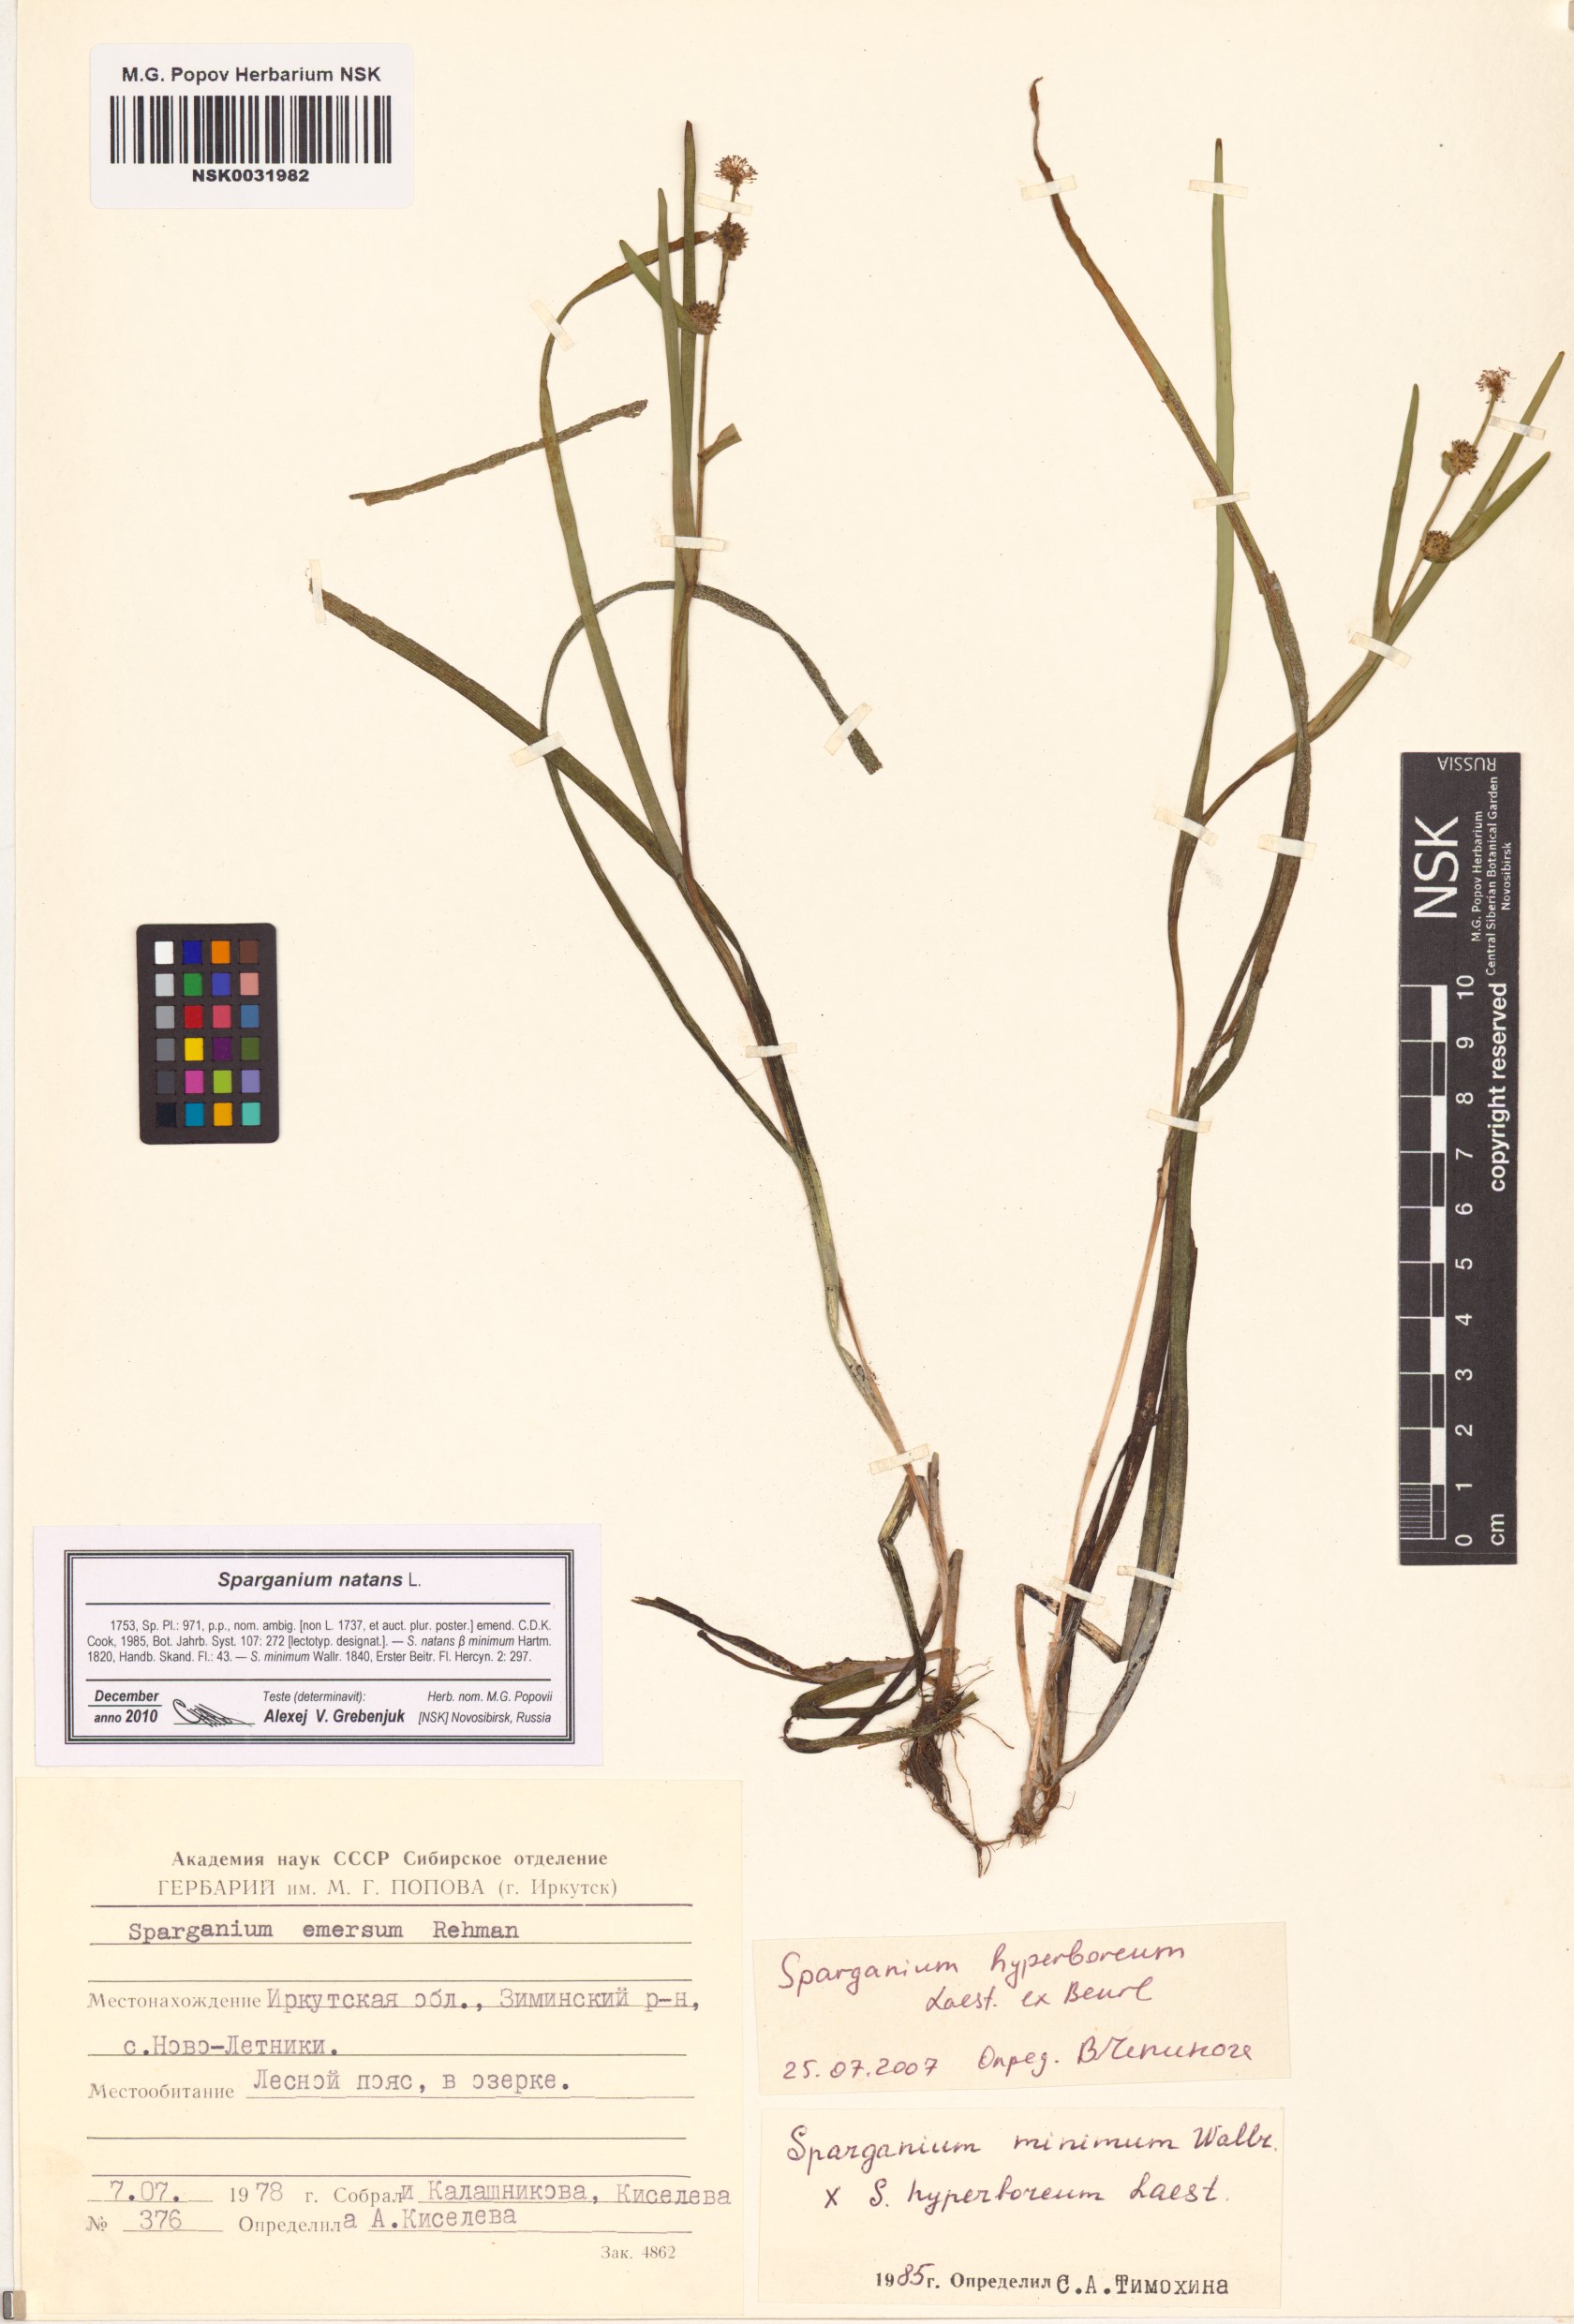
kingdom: Plantae
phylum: Tracheophyta
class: Liliopsida
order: Poales
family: Typhaceae
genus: Sparganium
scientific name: Sparganium natans
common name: Least bur-reed
